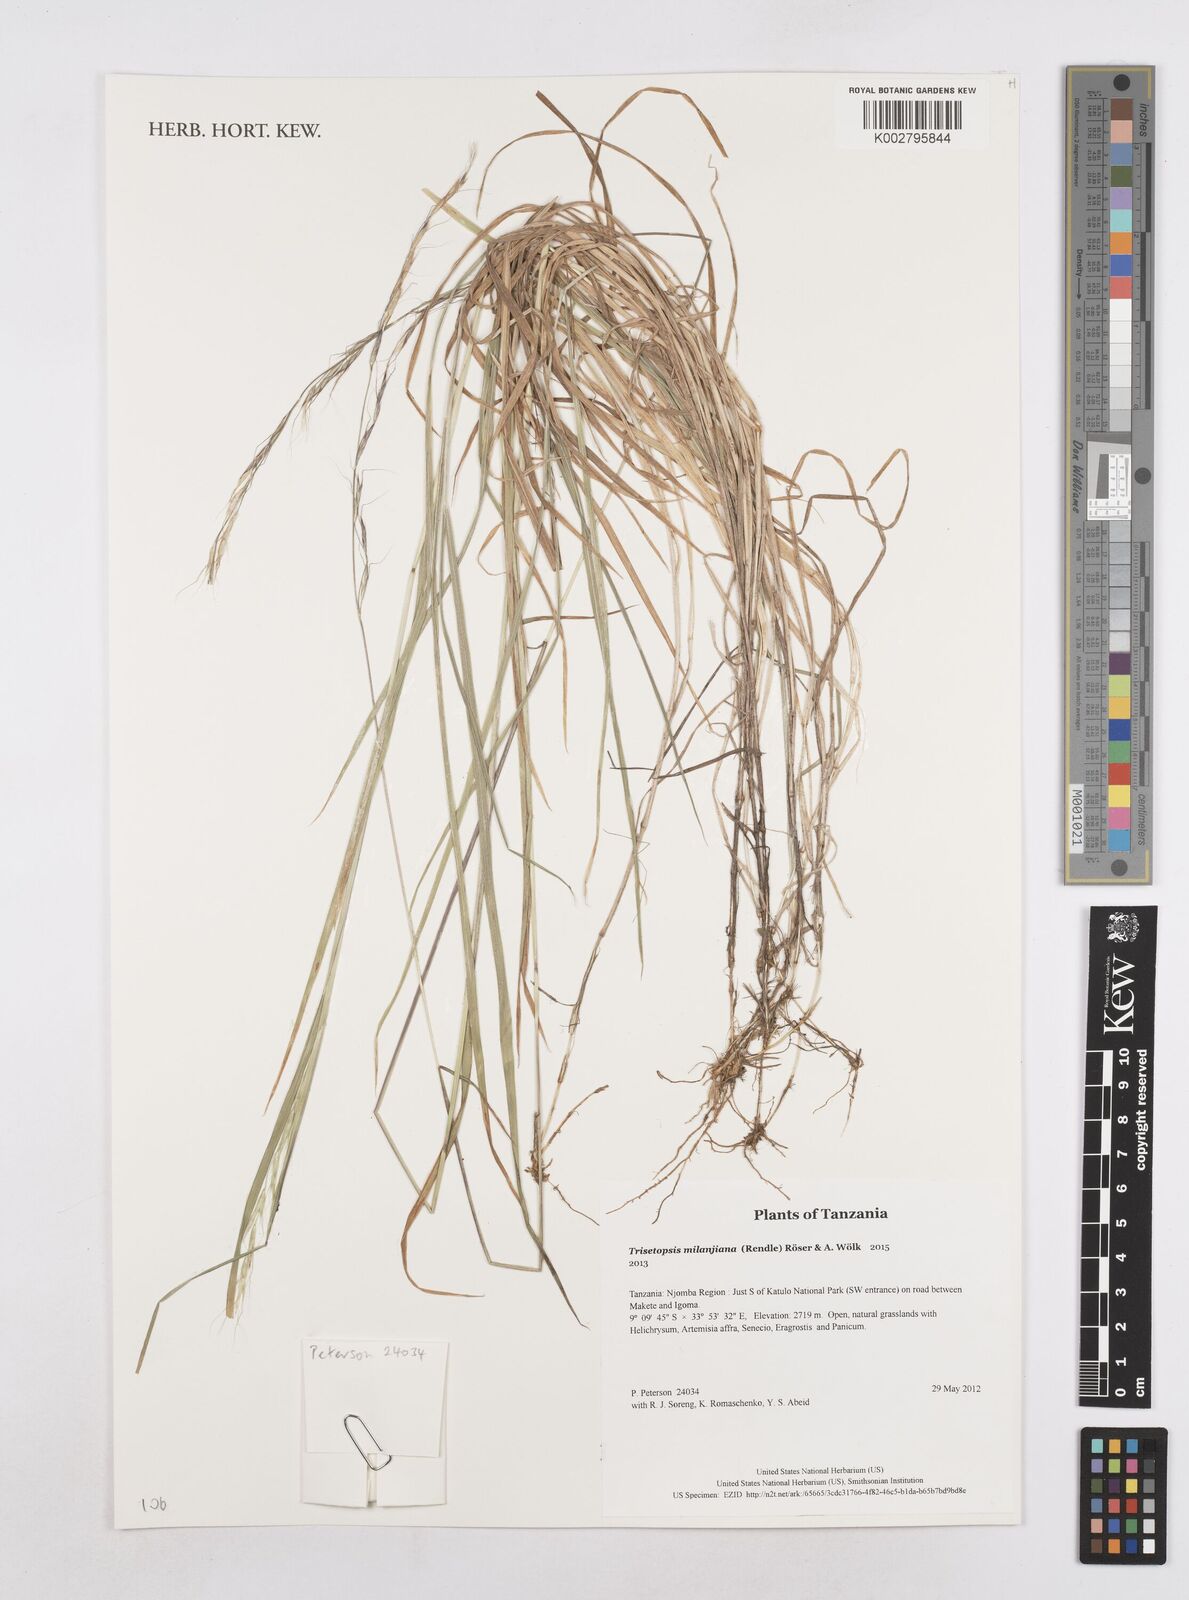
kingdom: Plantae
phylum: Tracheophyta
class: Liliopsida
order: Poales
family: Poaceae
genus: Trisetopsis
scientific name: Trisetopsis milanjiana
